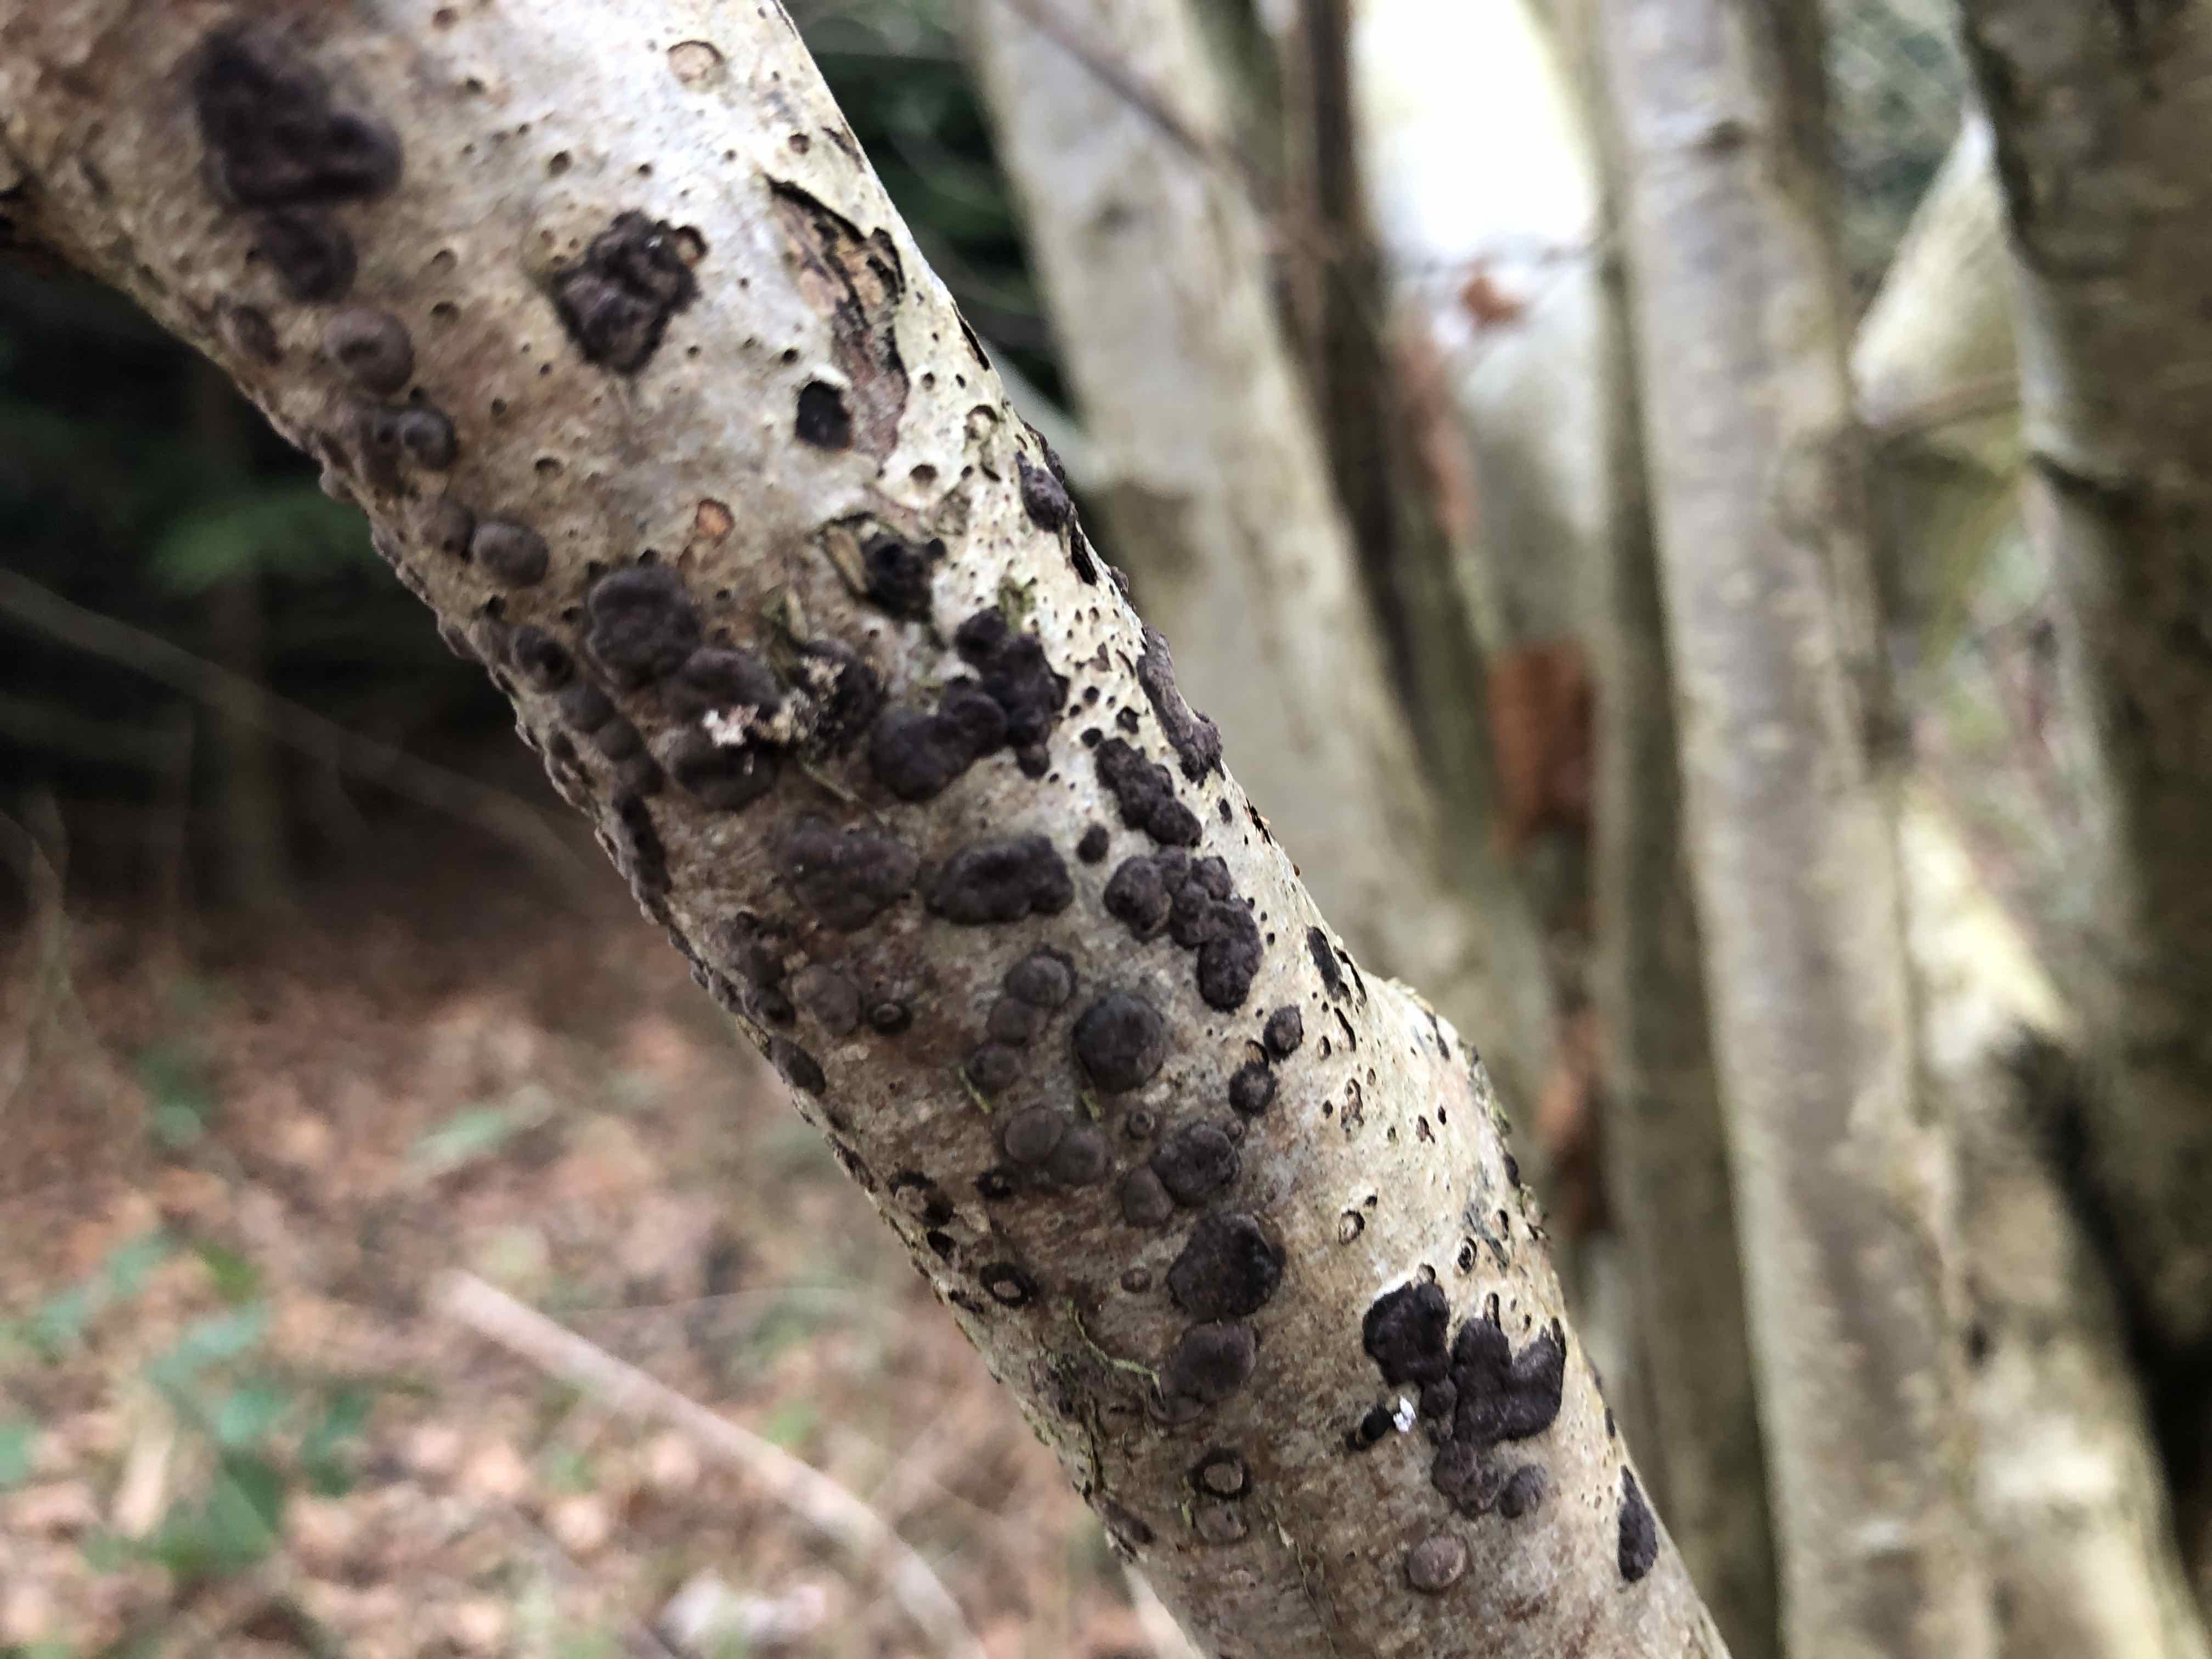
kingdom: Fungi
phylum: Ascomycota
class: Sordariomycetes
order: Xylariales
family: Hypoxylaceae
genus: Hypoxylon
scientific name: Hypoxylon fuscum
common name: kegleformet kulbær
